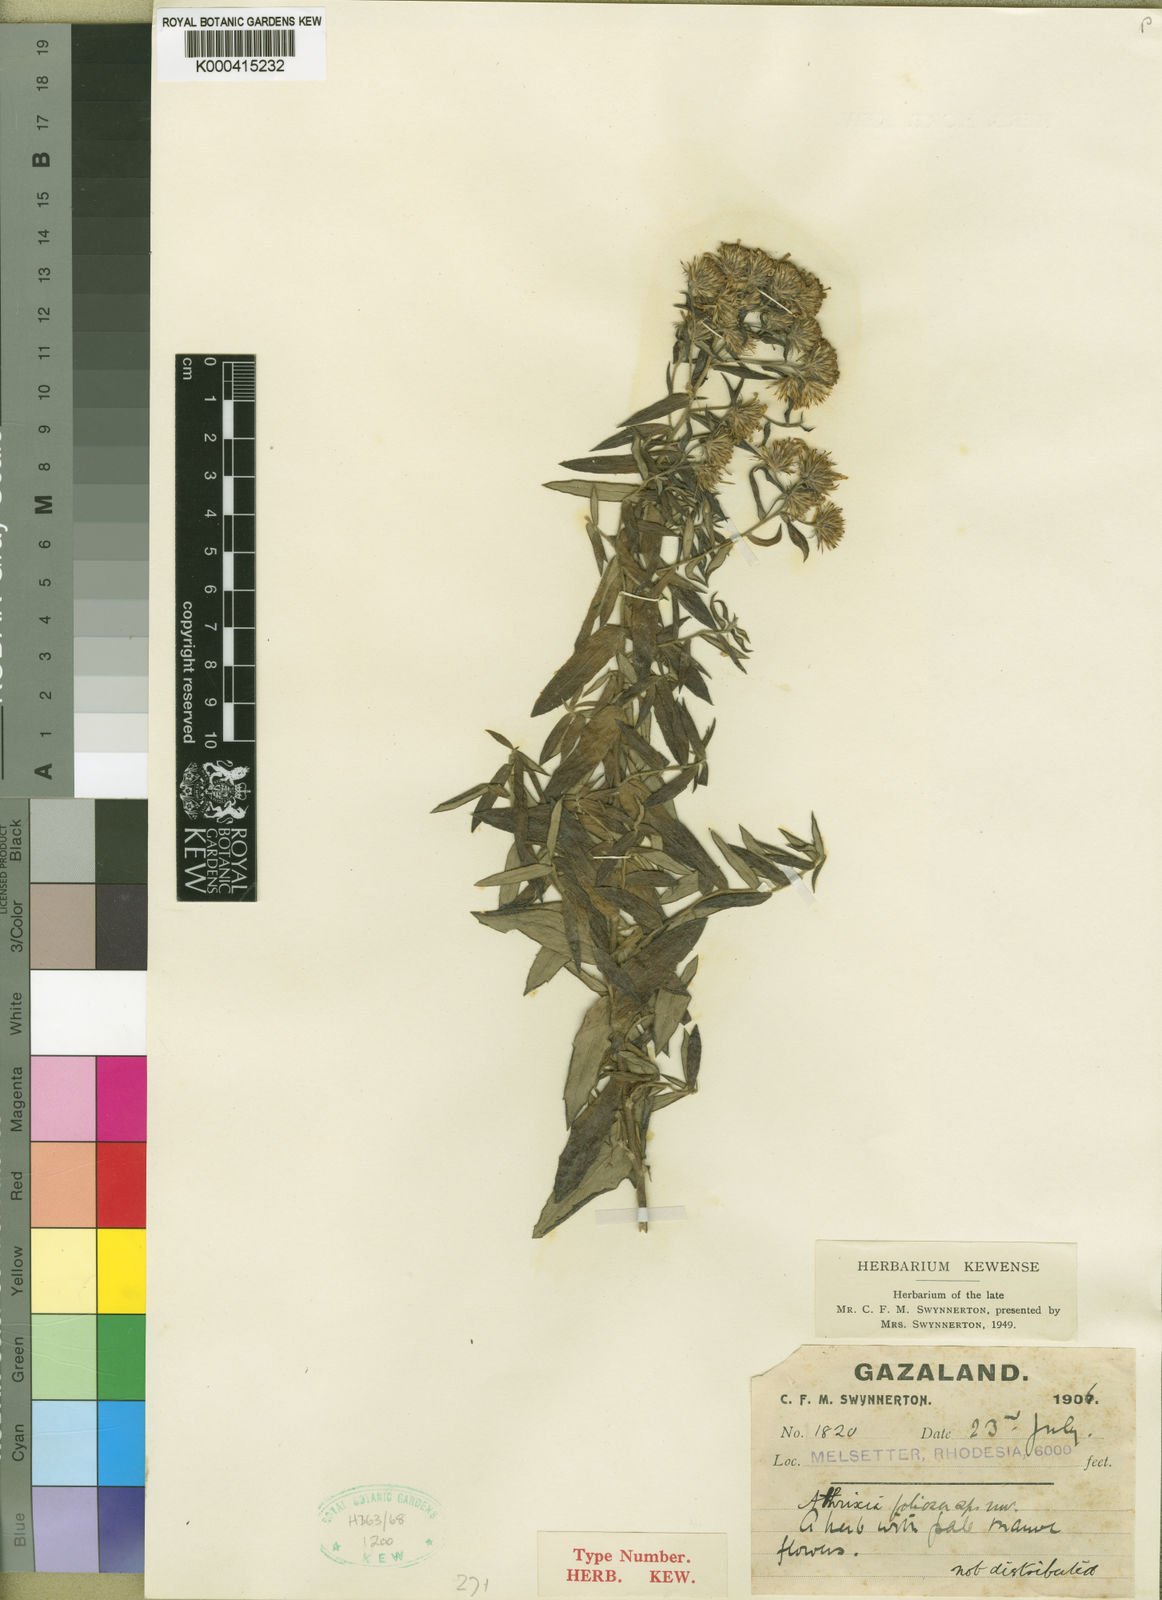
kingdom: Plantae
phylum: Tracheophyta
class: Magnoliopsida
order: Asterales
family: Asteraceae
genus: Athrixia
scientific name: Athrixia rosmarinifolia
